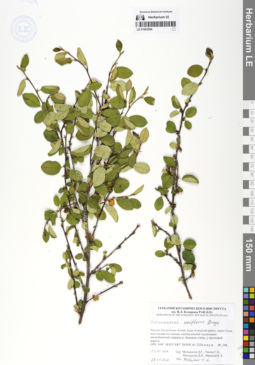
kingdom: Plantae
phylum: Tracheophyta
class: Magnoliopsida
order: Rosales
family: Rosaceae
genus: Cotoneaster
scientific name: Cotoneaster uniflorus
